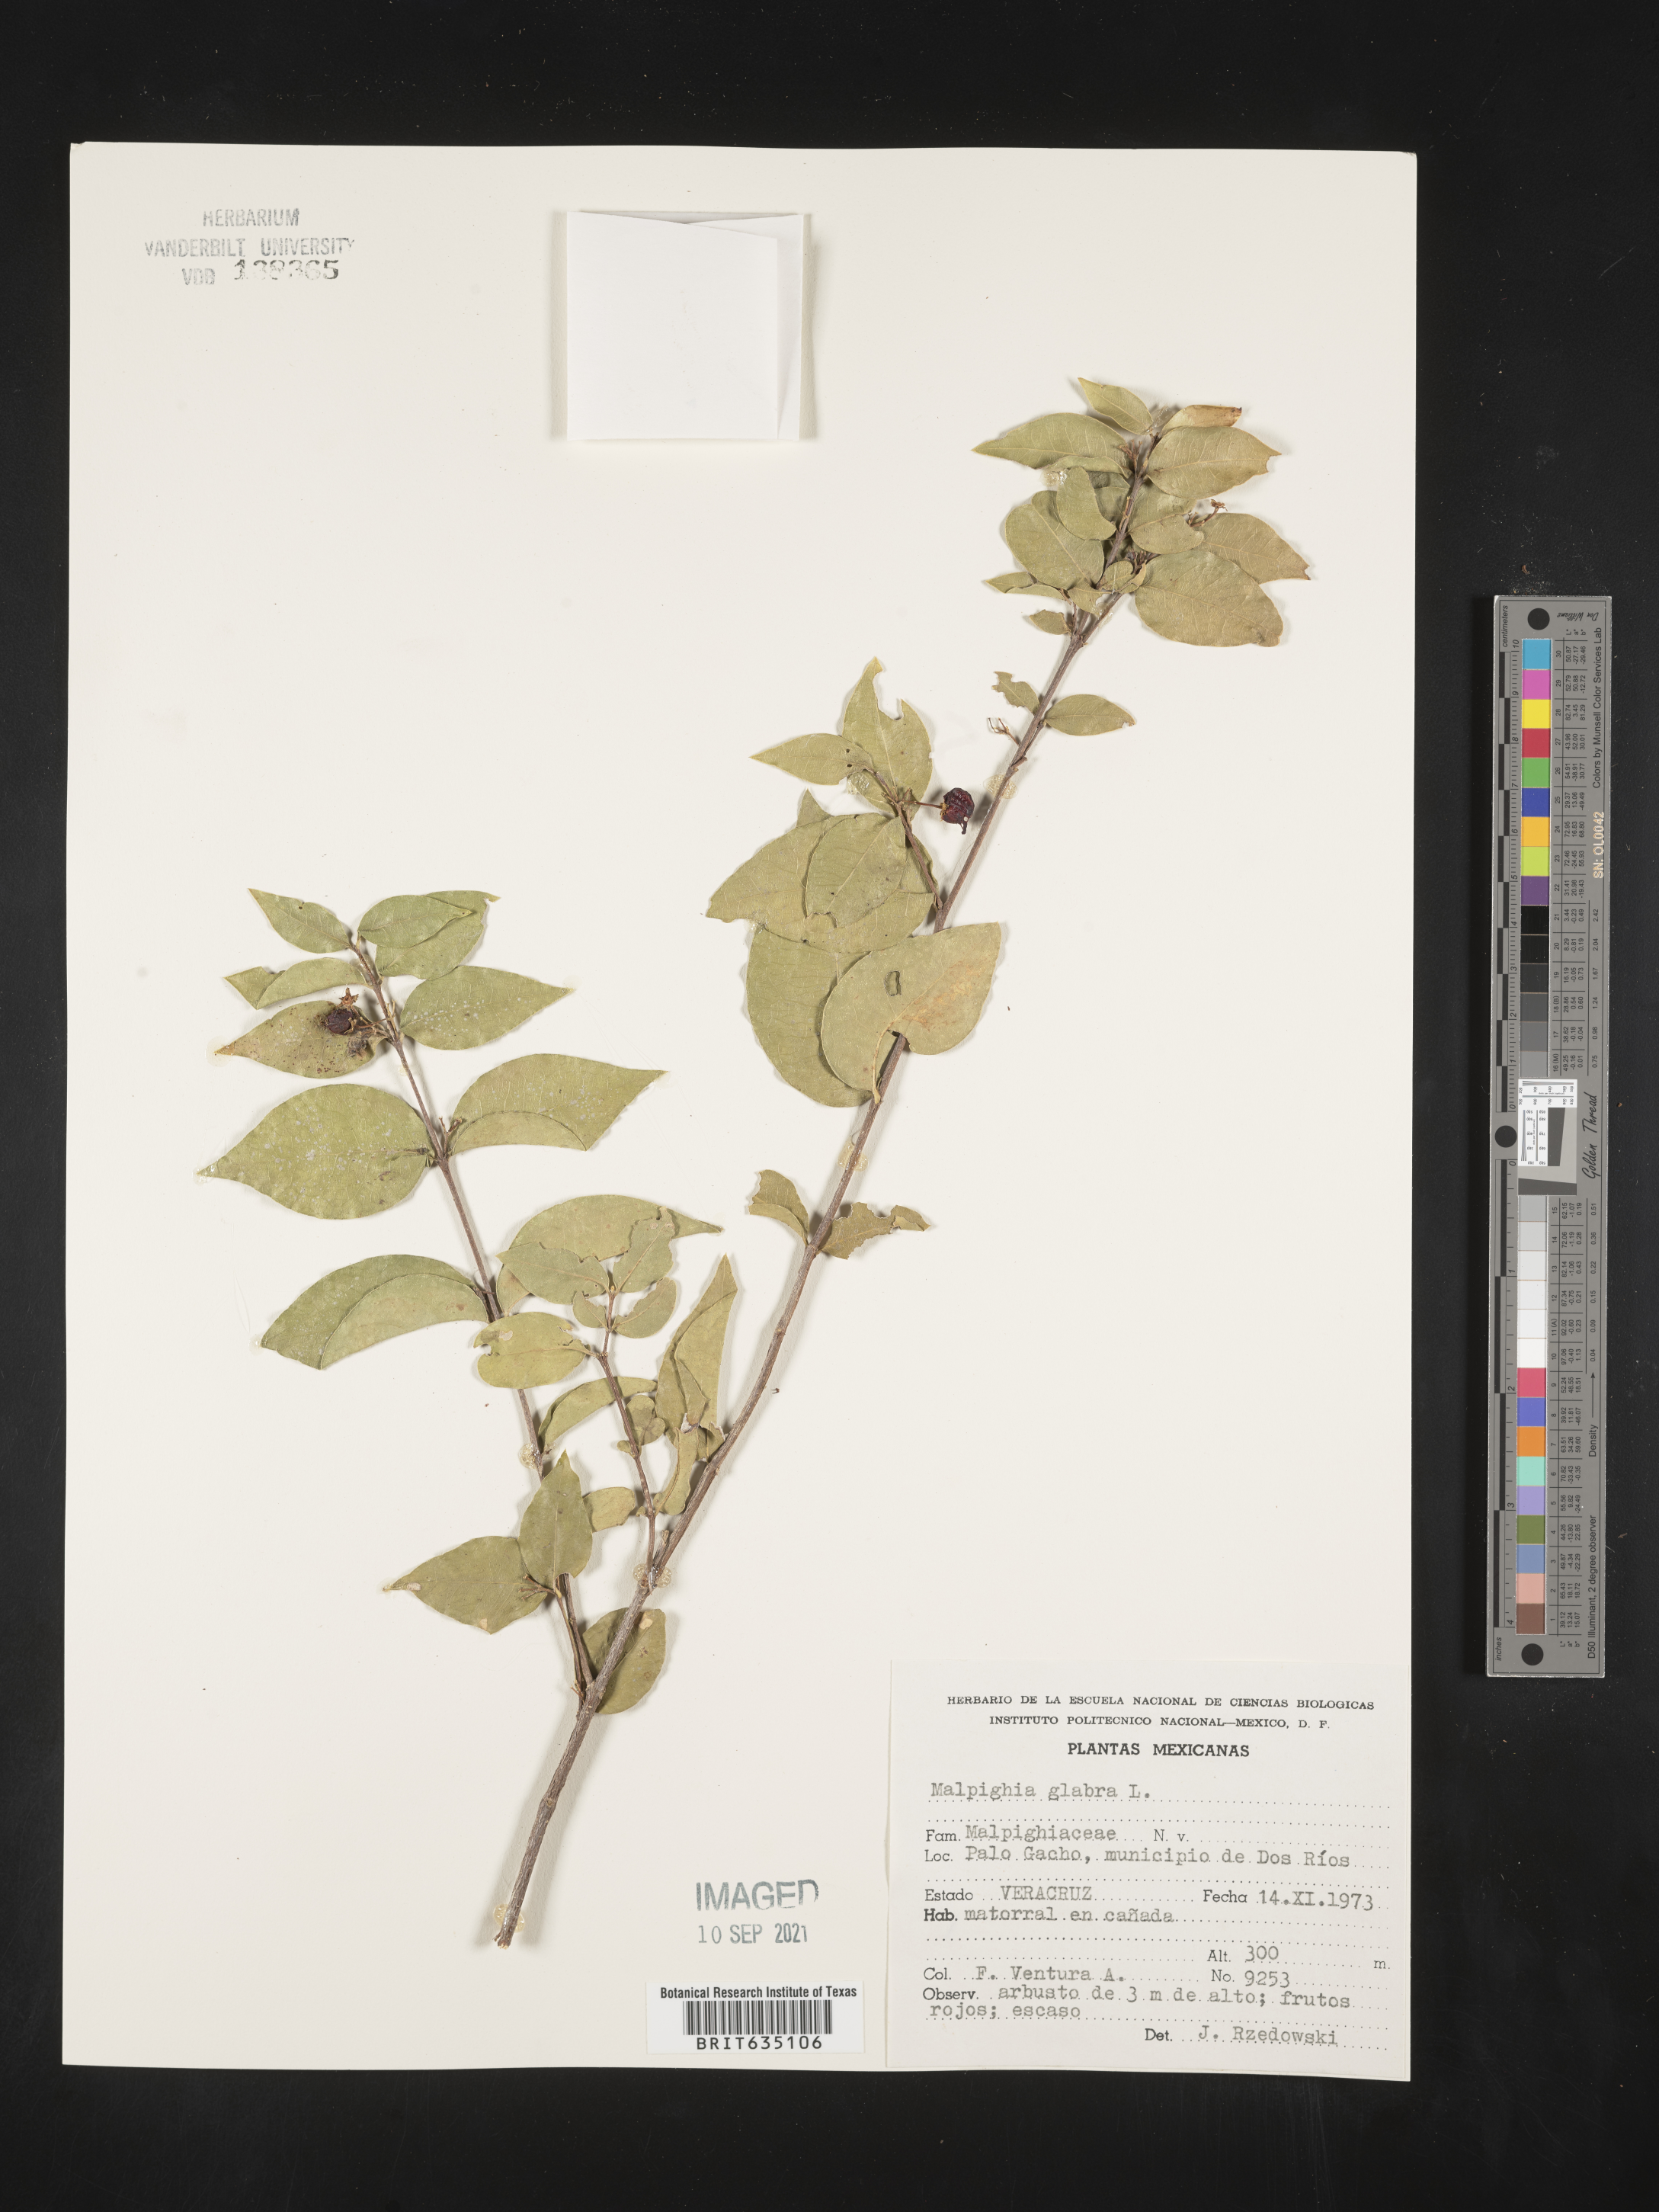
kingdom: Plantae
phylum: Tracheophyta
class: Magnoliopsida
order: Malpighiales
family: Malpighiaceae
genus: Malpighia
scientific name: Malpighia
